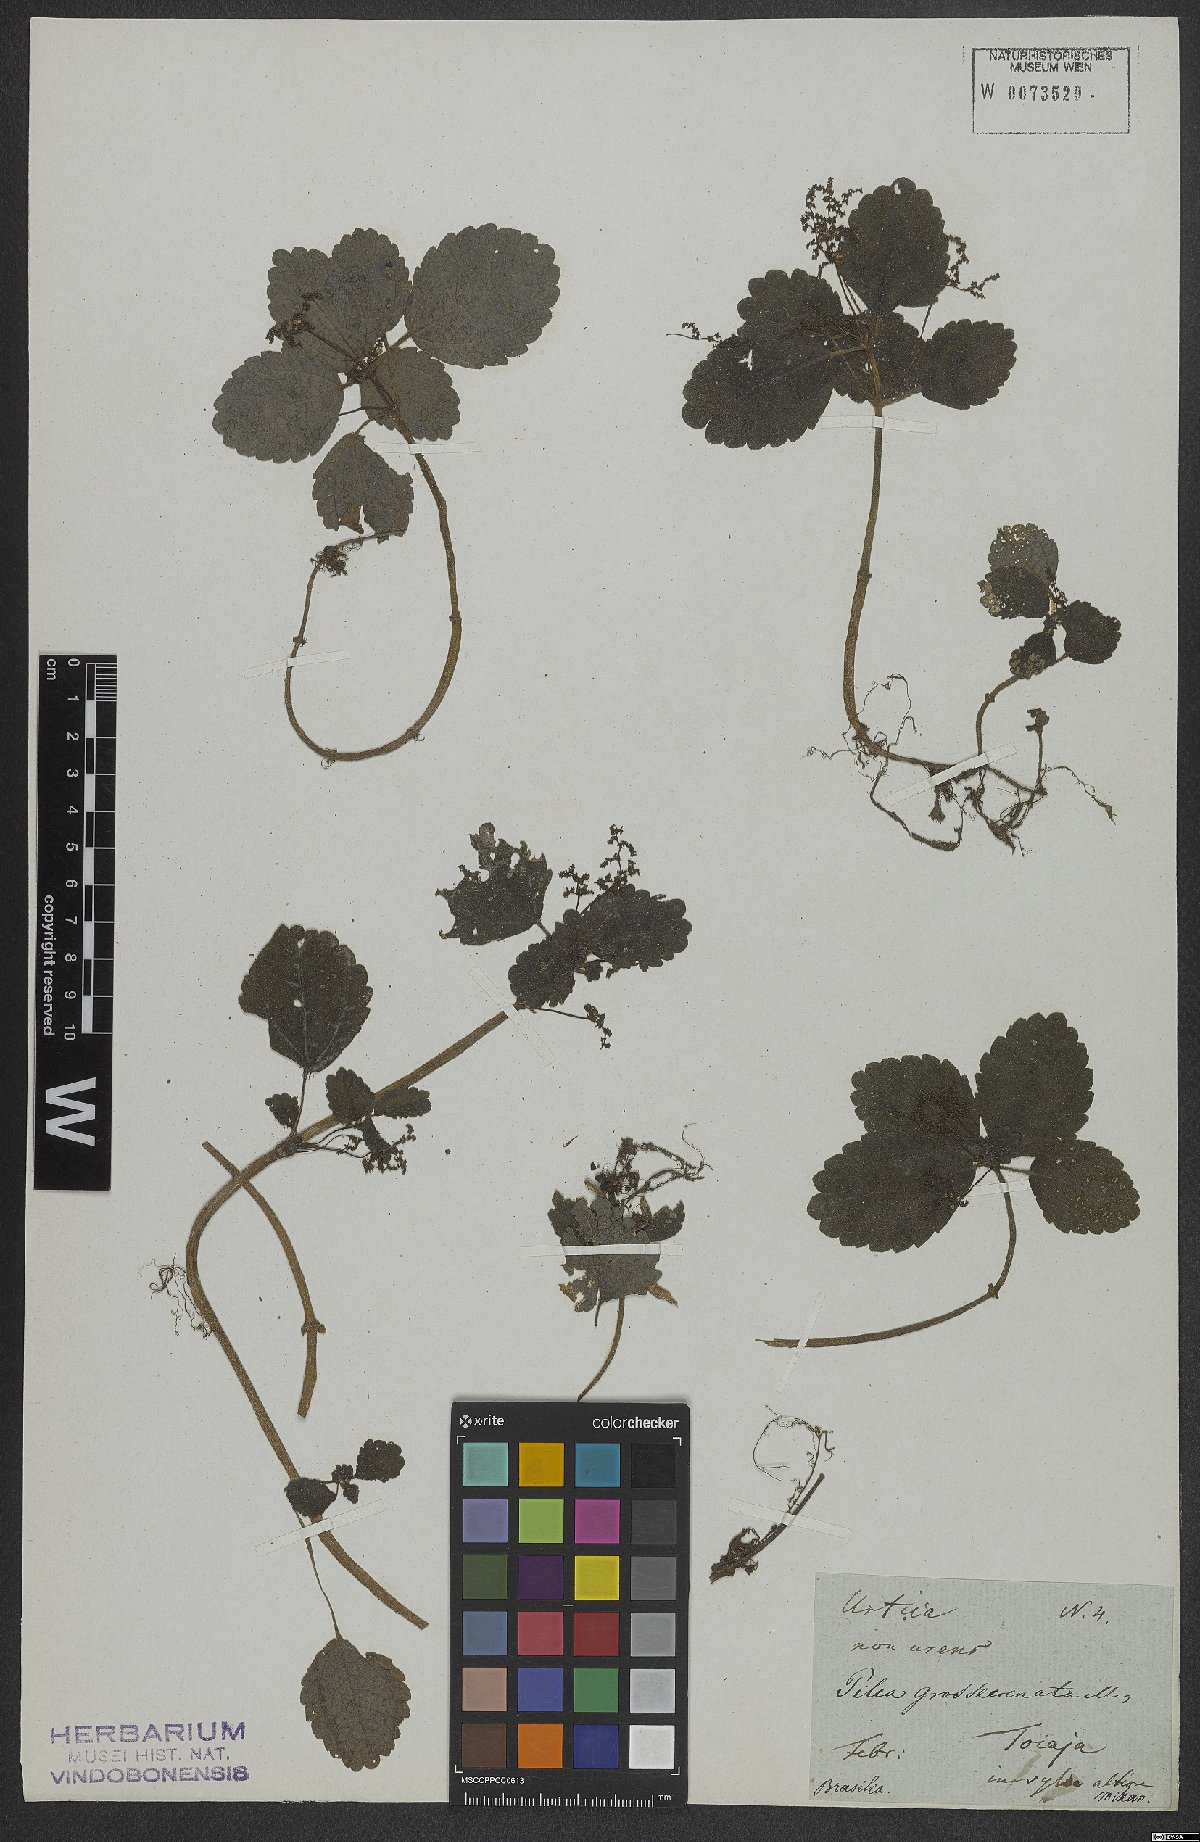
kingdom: Plantae
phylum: Tracheophyta
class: Magnoliopsida
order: Rosales
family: Urticaceae
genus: Pilea
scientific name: Pilea pubescens
